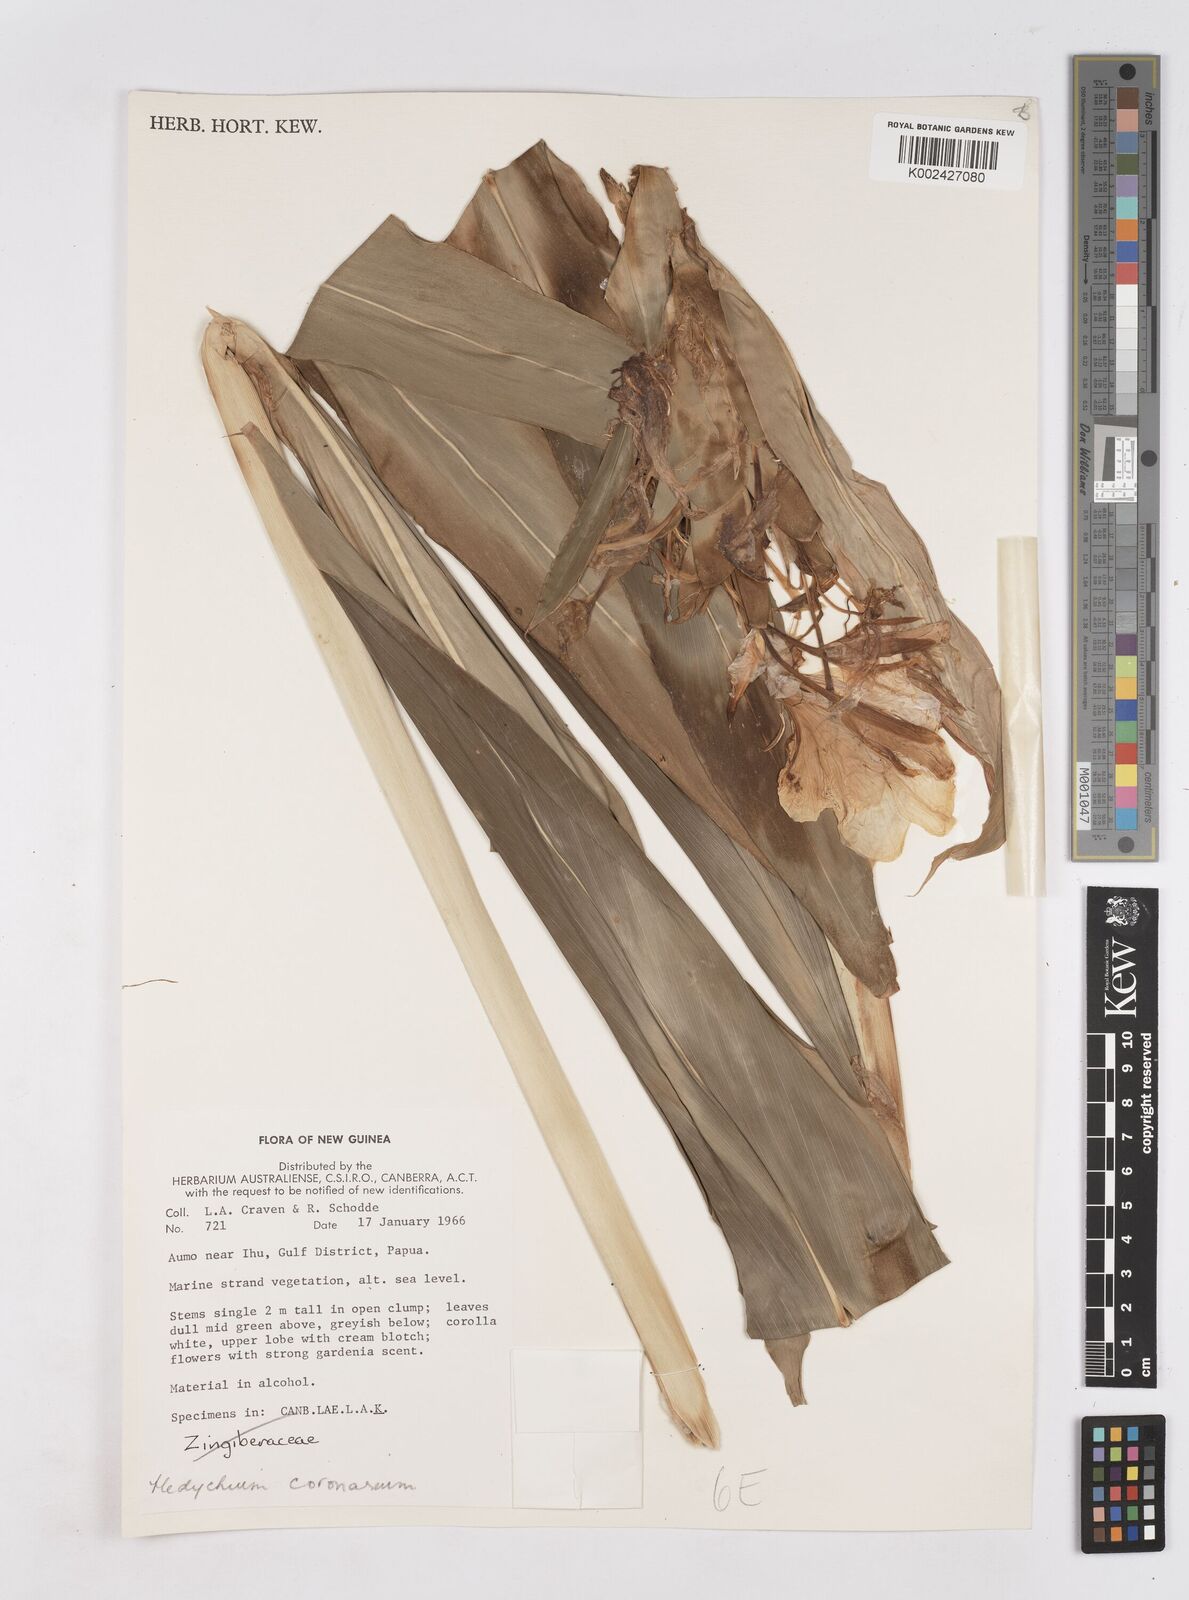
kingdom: Plantae
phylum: Tracheophyta
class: Liliopsida
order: Zingiberales
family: Zingiberaceae
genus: Hedychium
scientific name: Hedychium coronarium
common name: White garland-lily
